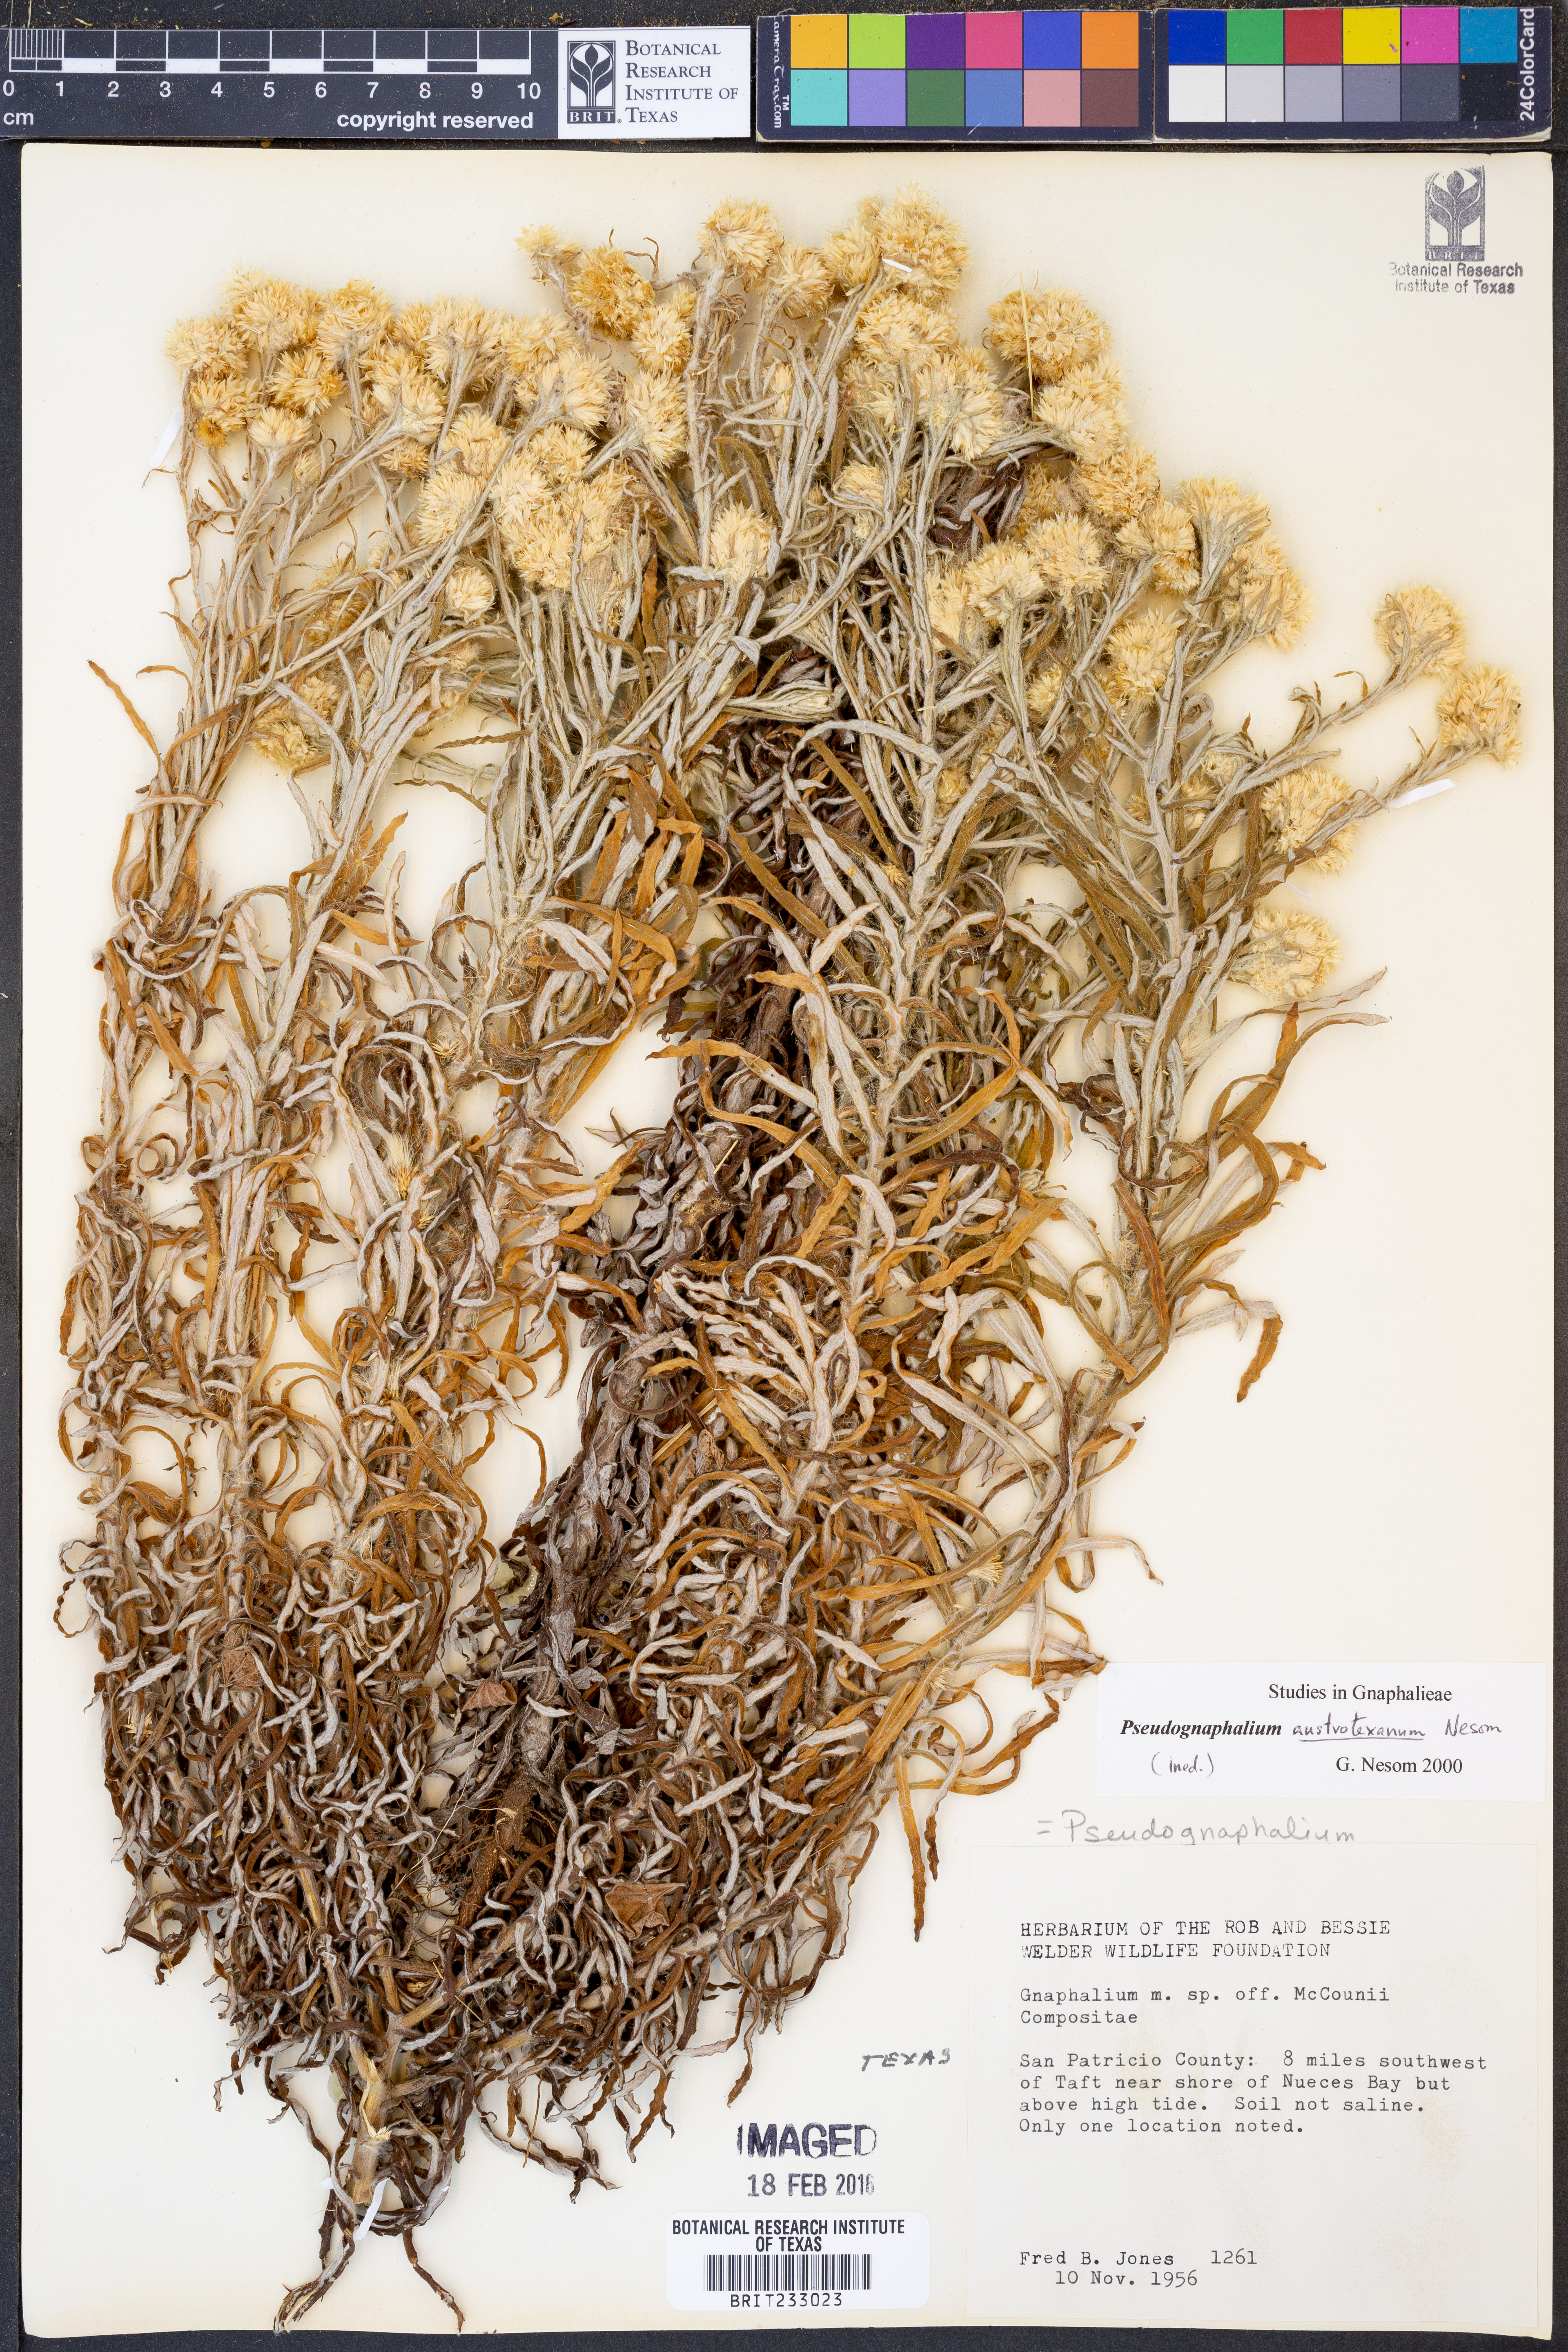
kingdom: Plantae
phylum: Tracheophyta
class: Magnoliopsida
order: Asterales
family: Asteraceae
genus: Pseudognaphalium
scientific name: Pseudognaphalium austrotexanum
